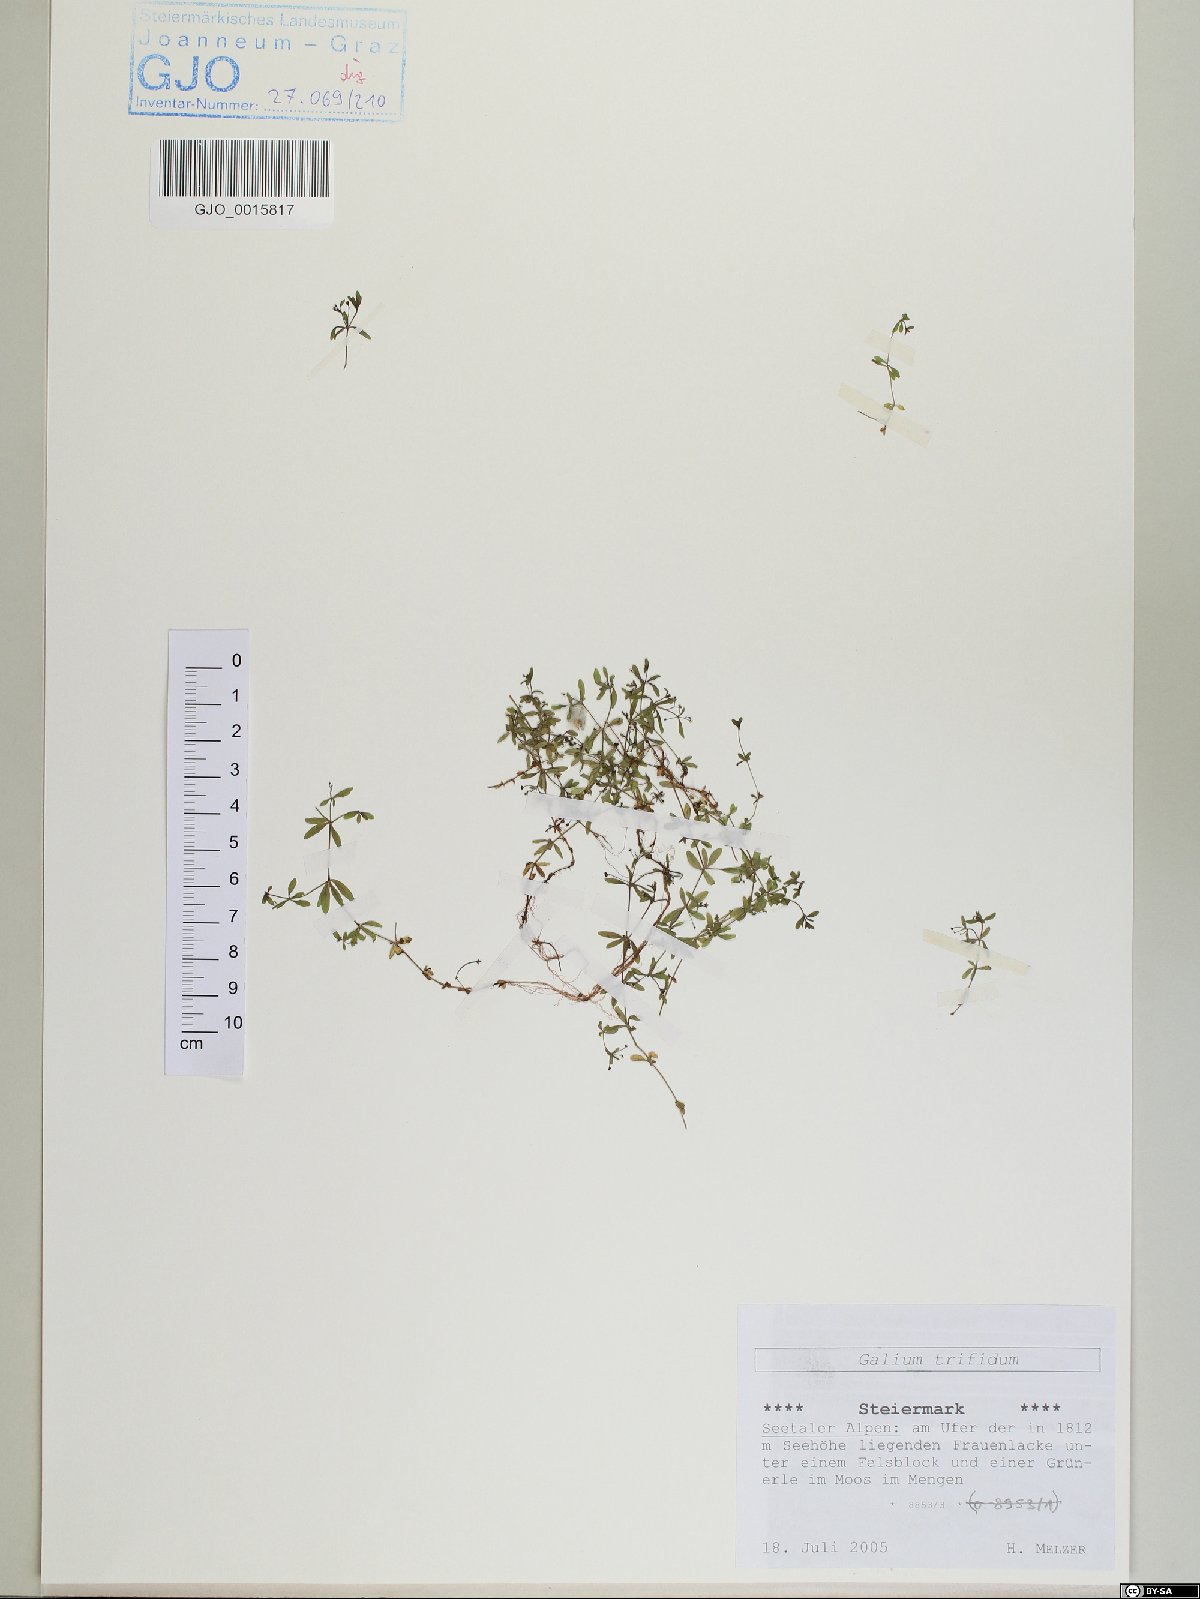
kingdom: Plantae
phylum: Tracheophyta
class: Magnoliopsida
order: Gentianales
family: Rubiaceae
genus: Galium
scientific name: Galium trifidum
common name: Small bedstraw
